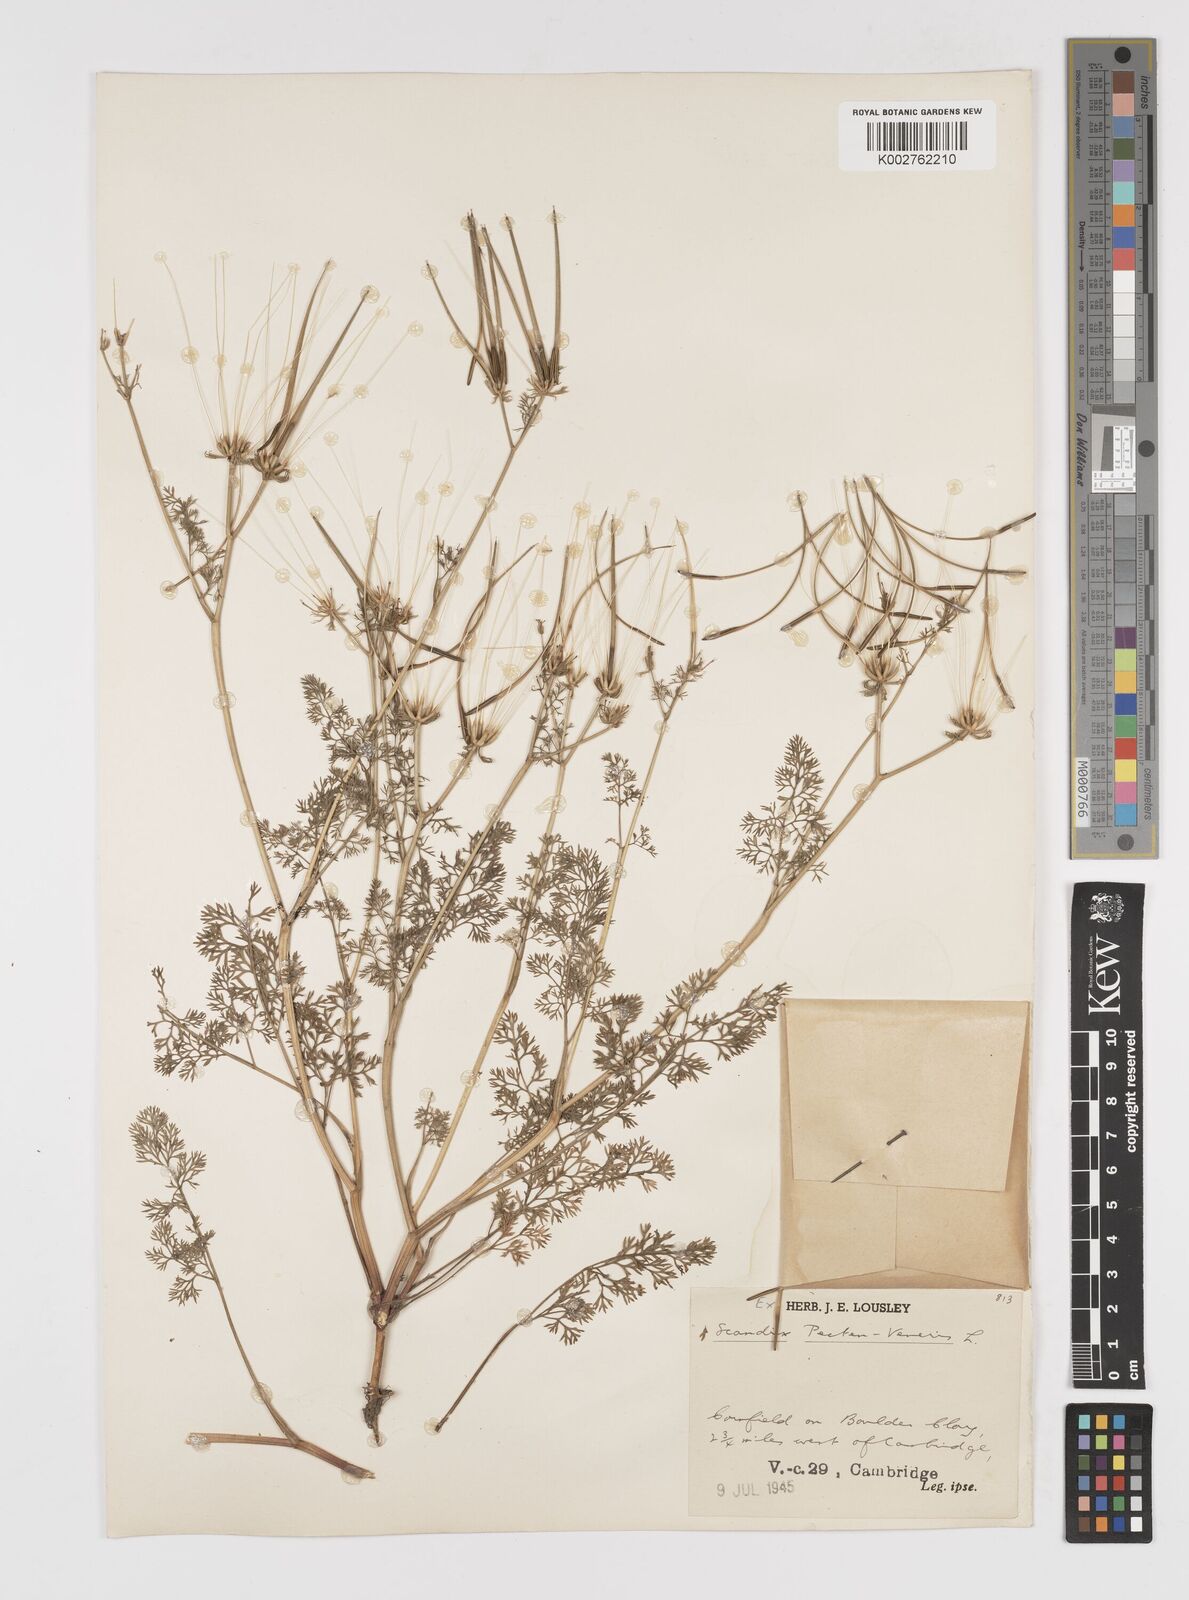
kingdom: Plantae
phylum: Tracheophyta
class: Magnoliopsida
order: Apiales
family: Apiaceae
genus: Scandix
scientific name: Scandix pecten-veneris
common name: Shepherd's-needle
